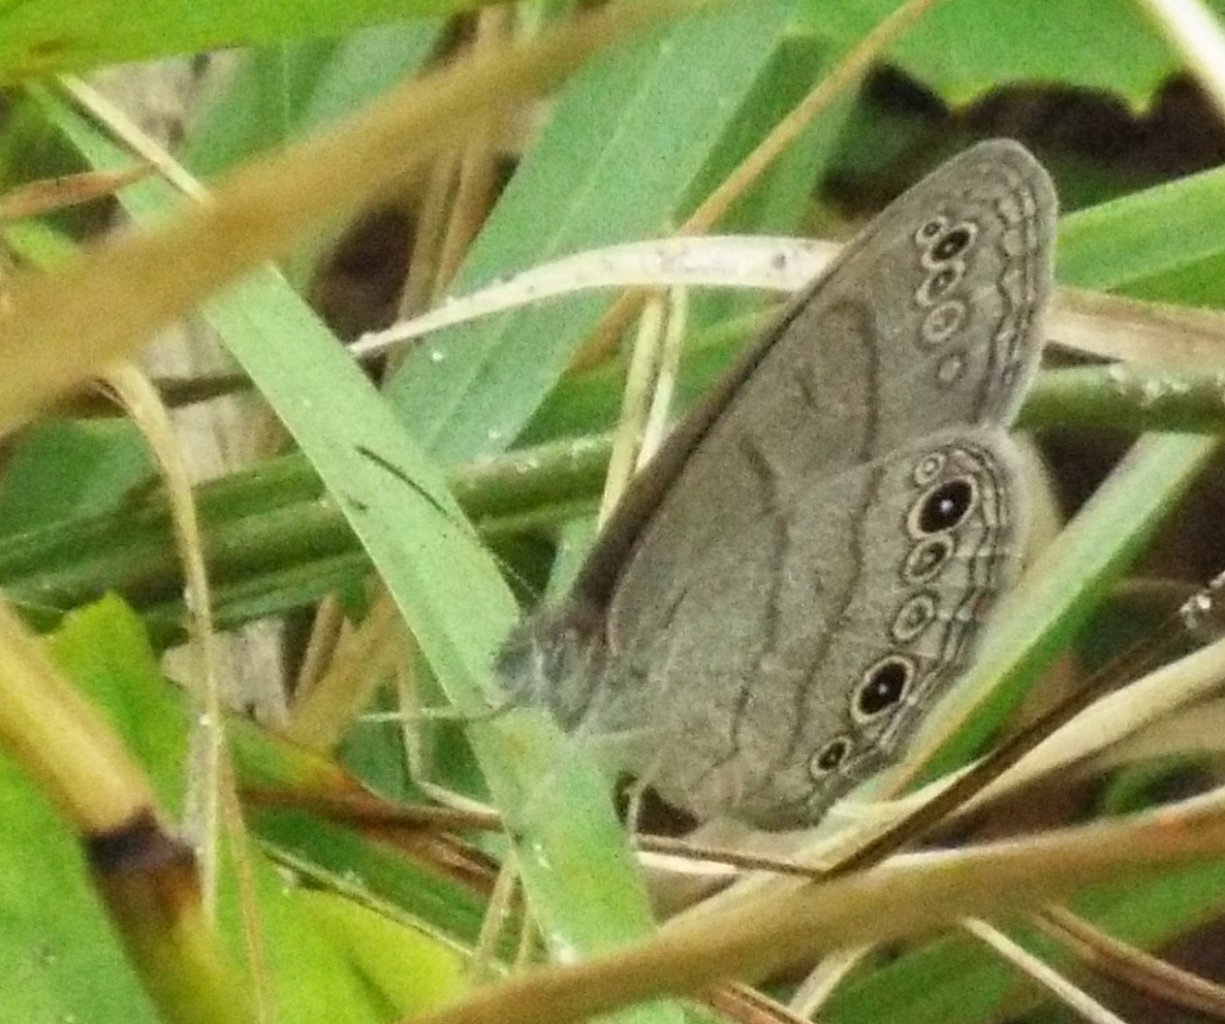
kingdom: Animalia
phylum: Arthropoda
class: Insecta
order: Lepidoptera
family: Nymphalidae
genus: Hermeuptychia
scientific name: Hermeuptychia hermes
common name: Carolina Satyr
